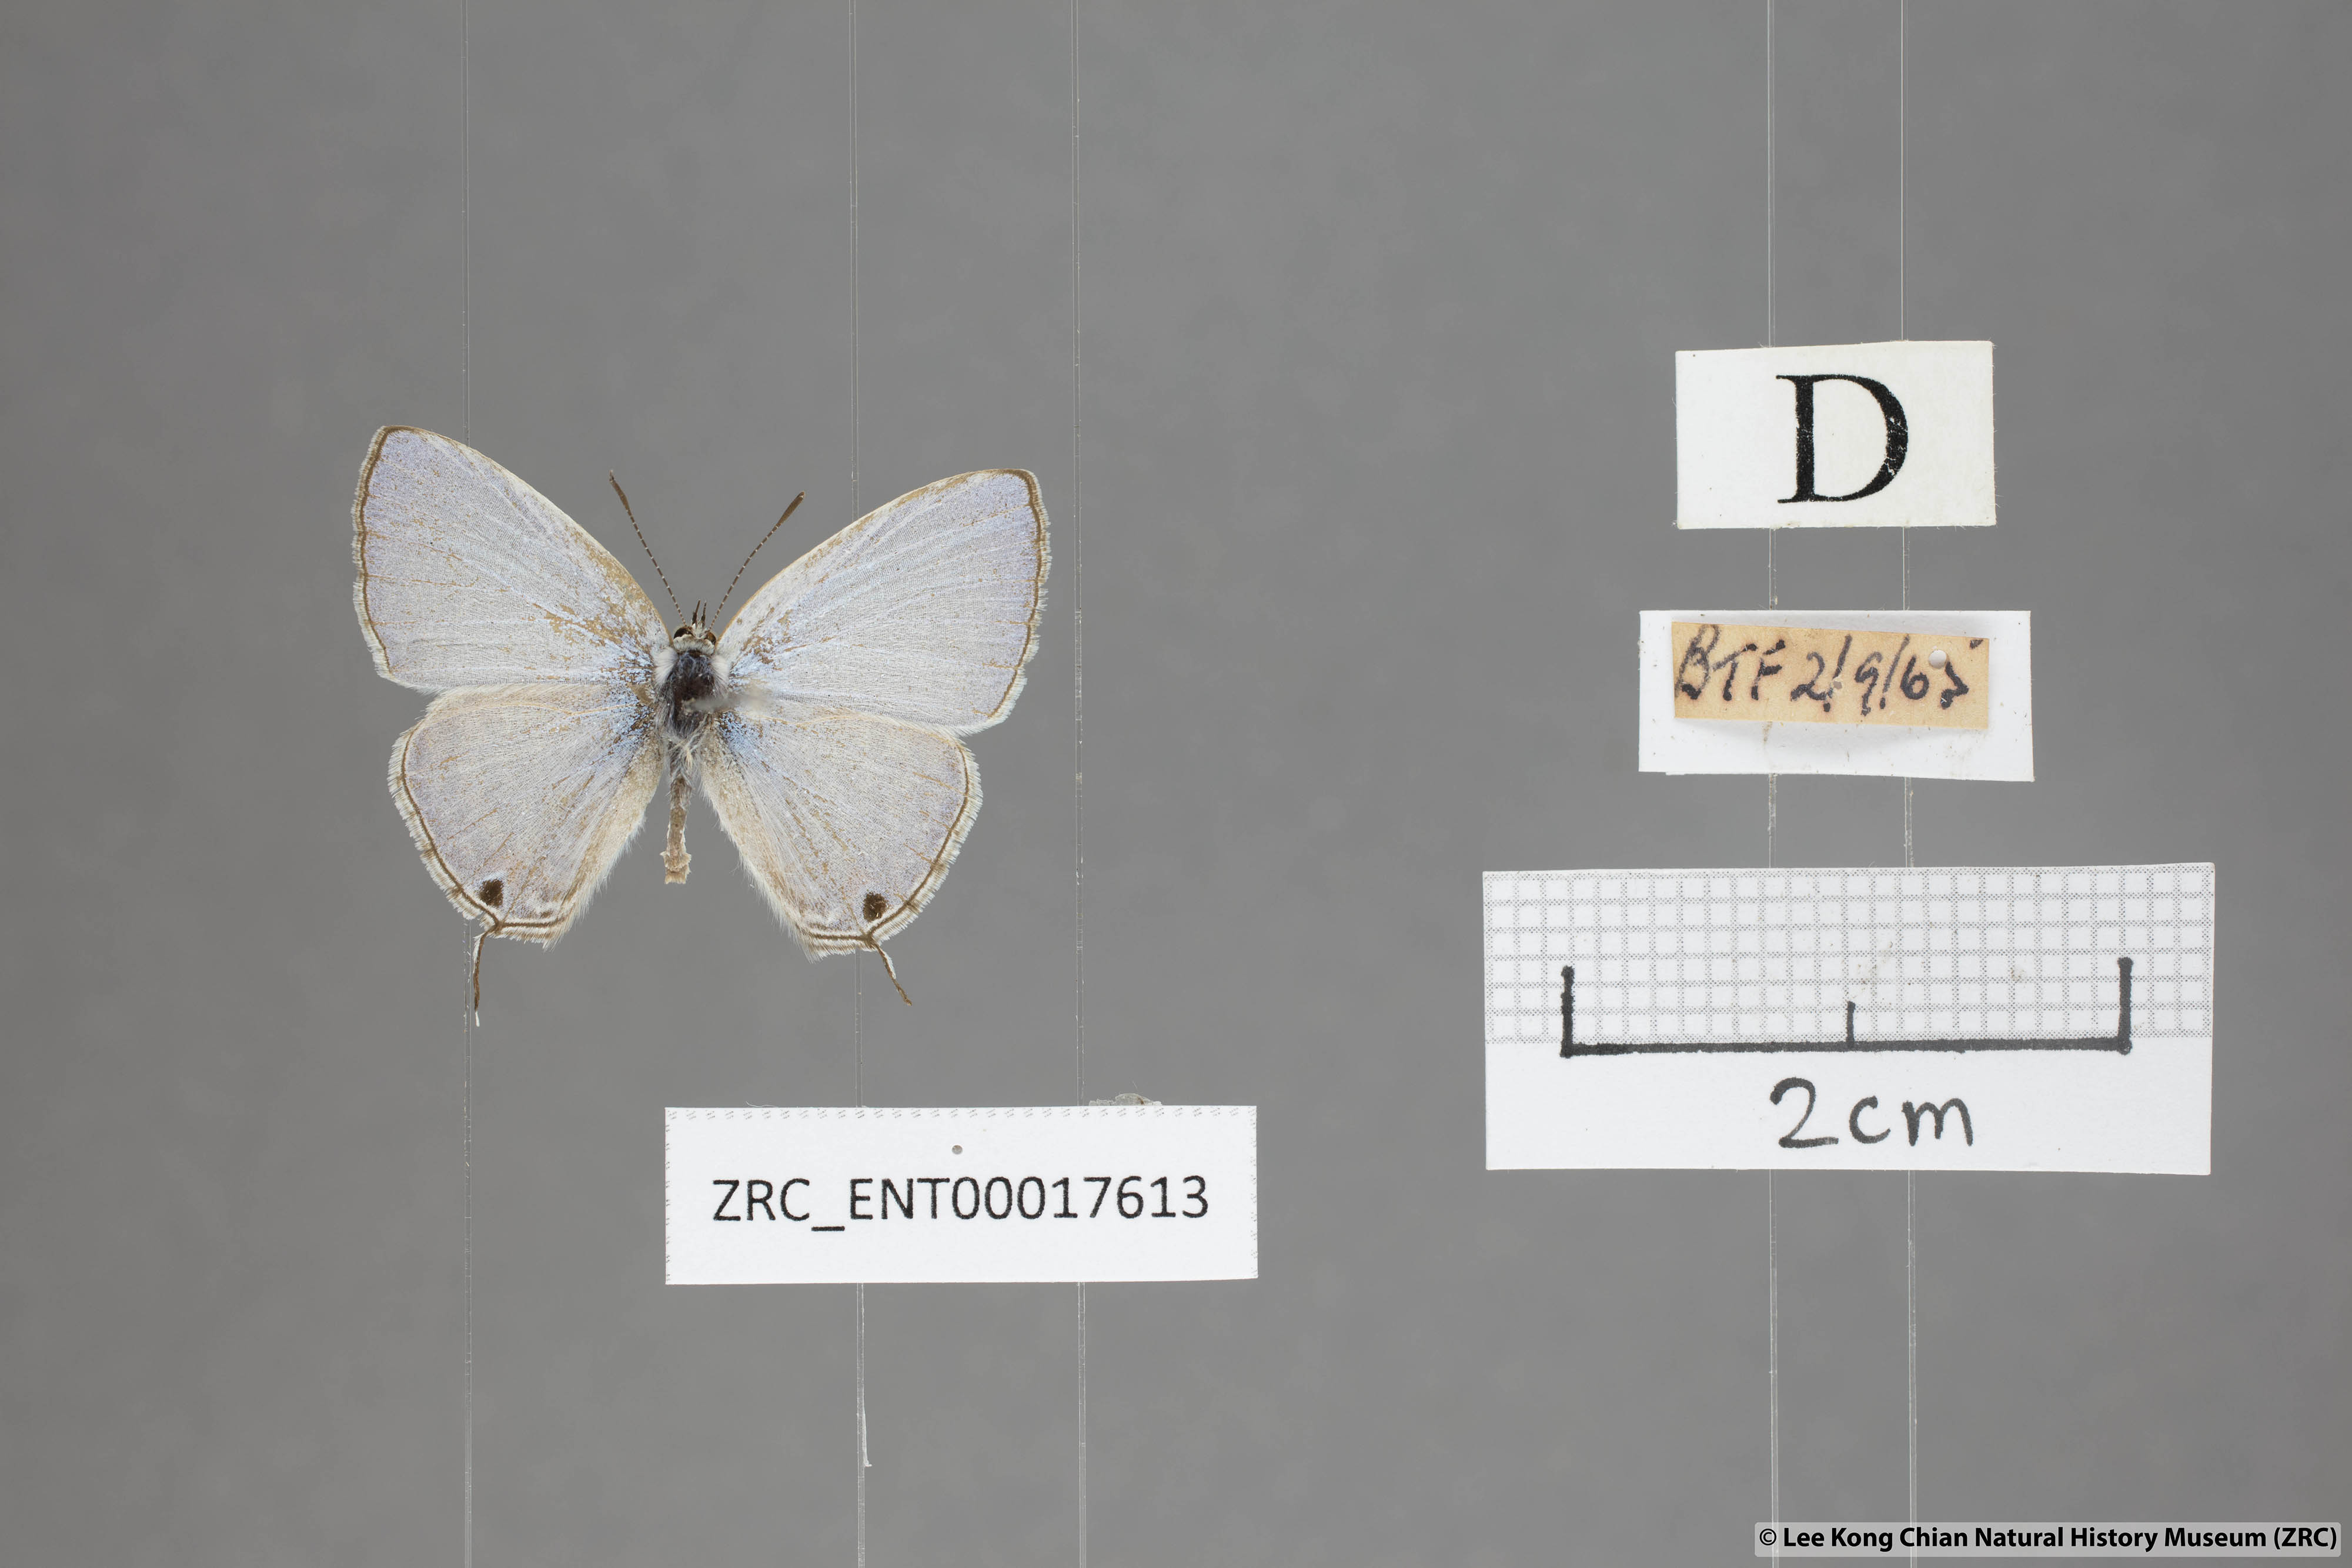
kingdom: Animalia
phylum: Arthropoda
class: Insecta
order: Lepidoptera
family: Lycaenidae
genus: Catochrysops
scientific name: Catochrysops panormus
